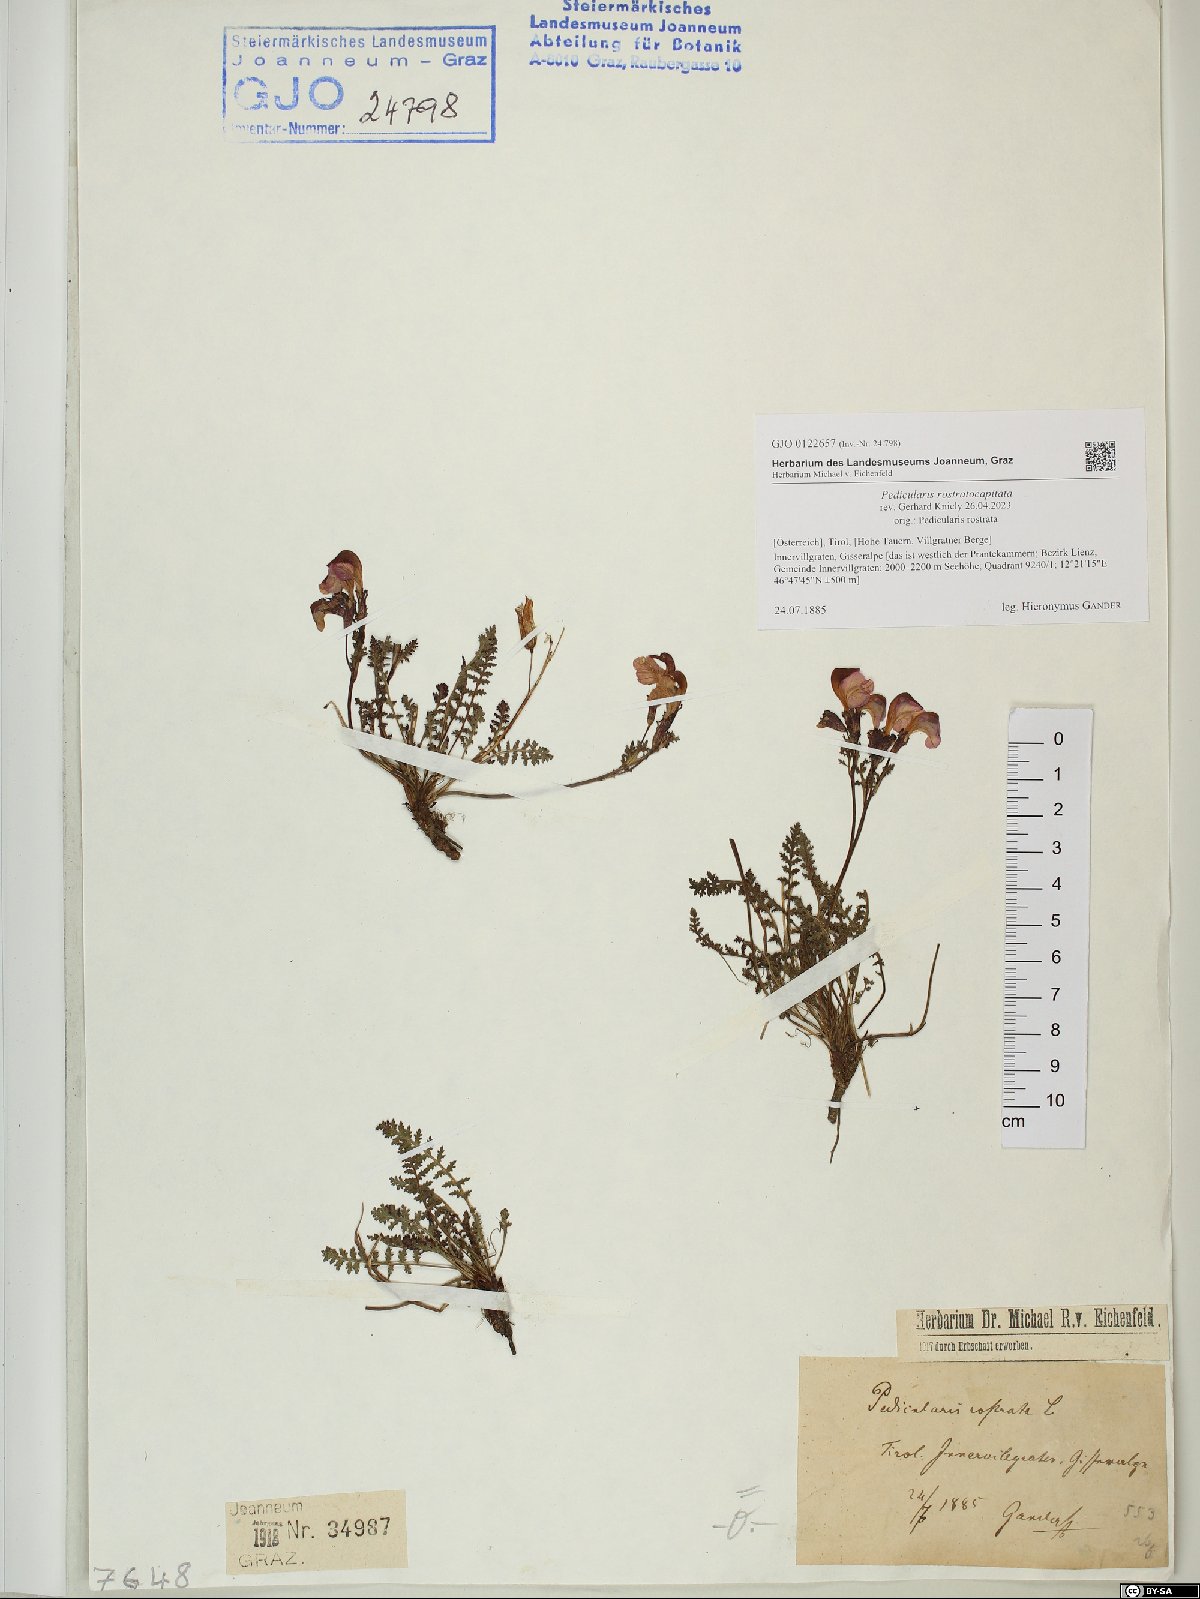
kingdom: Plantae
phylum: Tracheophyta
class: Magnoliopsida
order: Lamiales
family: Orobanchaceae
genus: Pedicularis
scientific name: Pedicularis rostratocapitata
